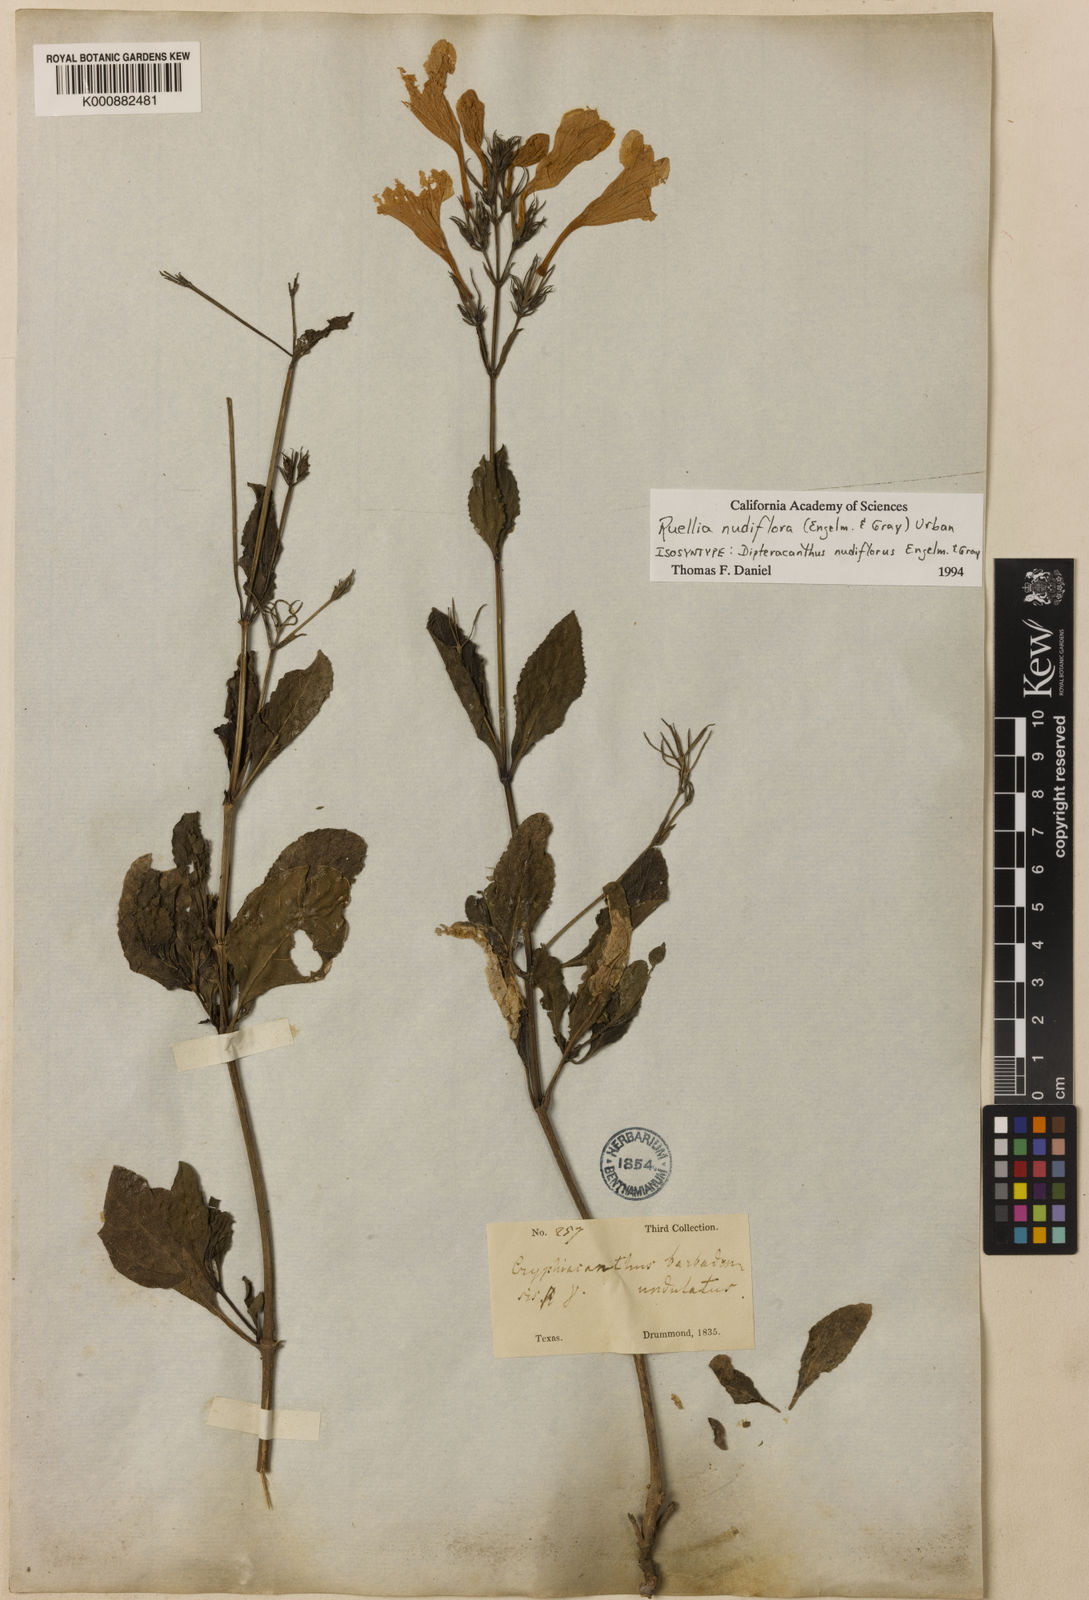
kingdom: Plantae
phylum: Tracheophyta
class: Magnoliopsida
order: Lamiales
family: Acanthaceae
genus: Ruellia
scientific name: Ruellia ciliatiflora
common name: Hairyflower wild petunia
